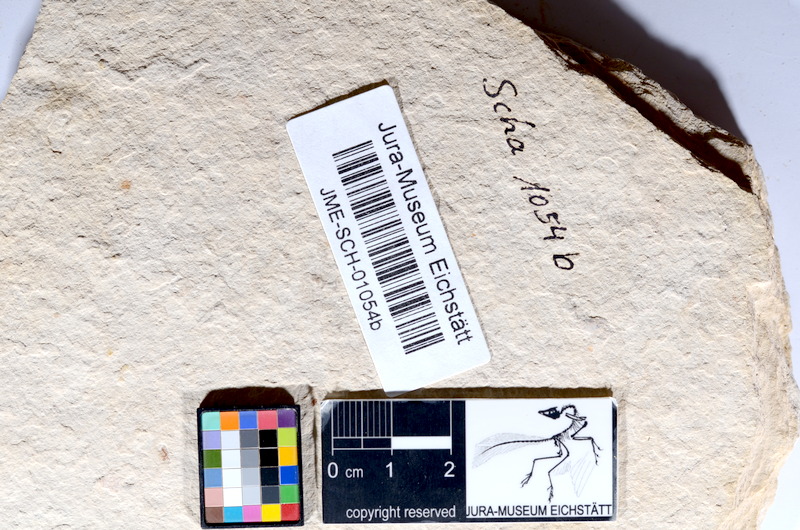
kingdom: Animalia
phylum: Chordata
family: Ascalaboidae
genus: Tharsis
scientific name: Tharsis dubius
